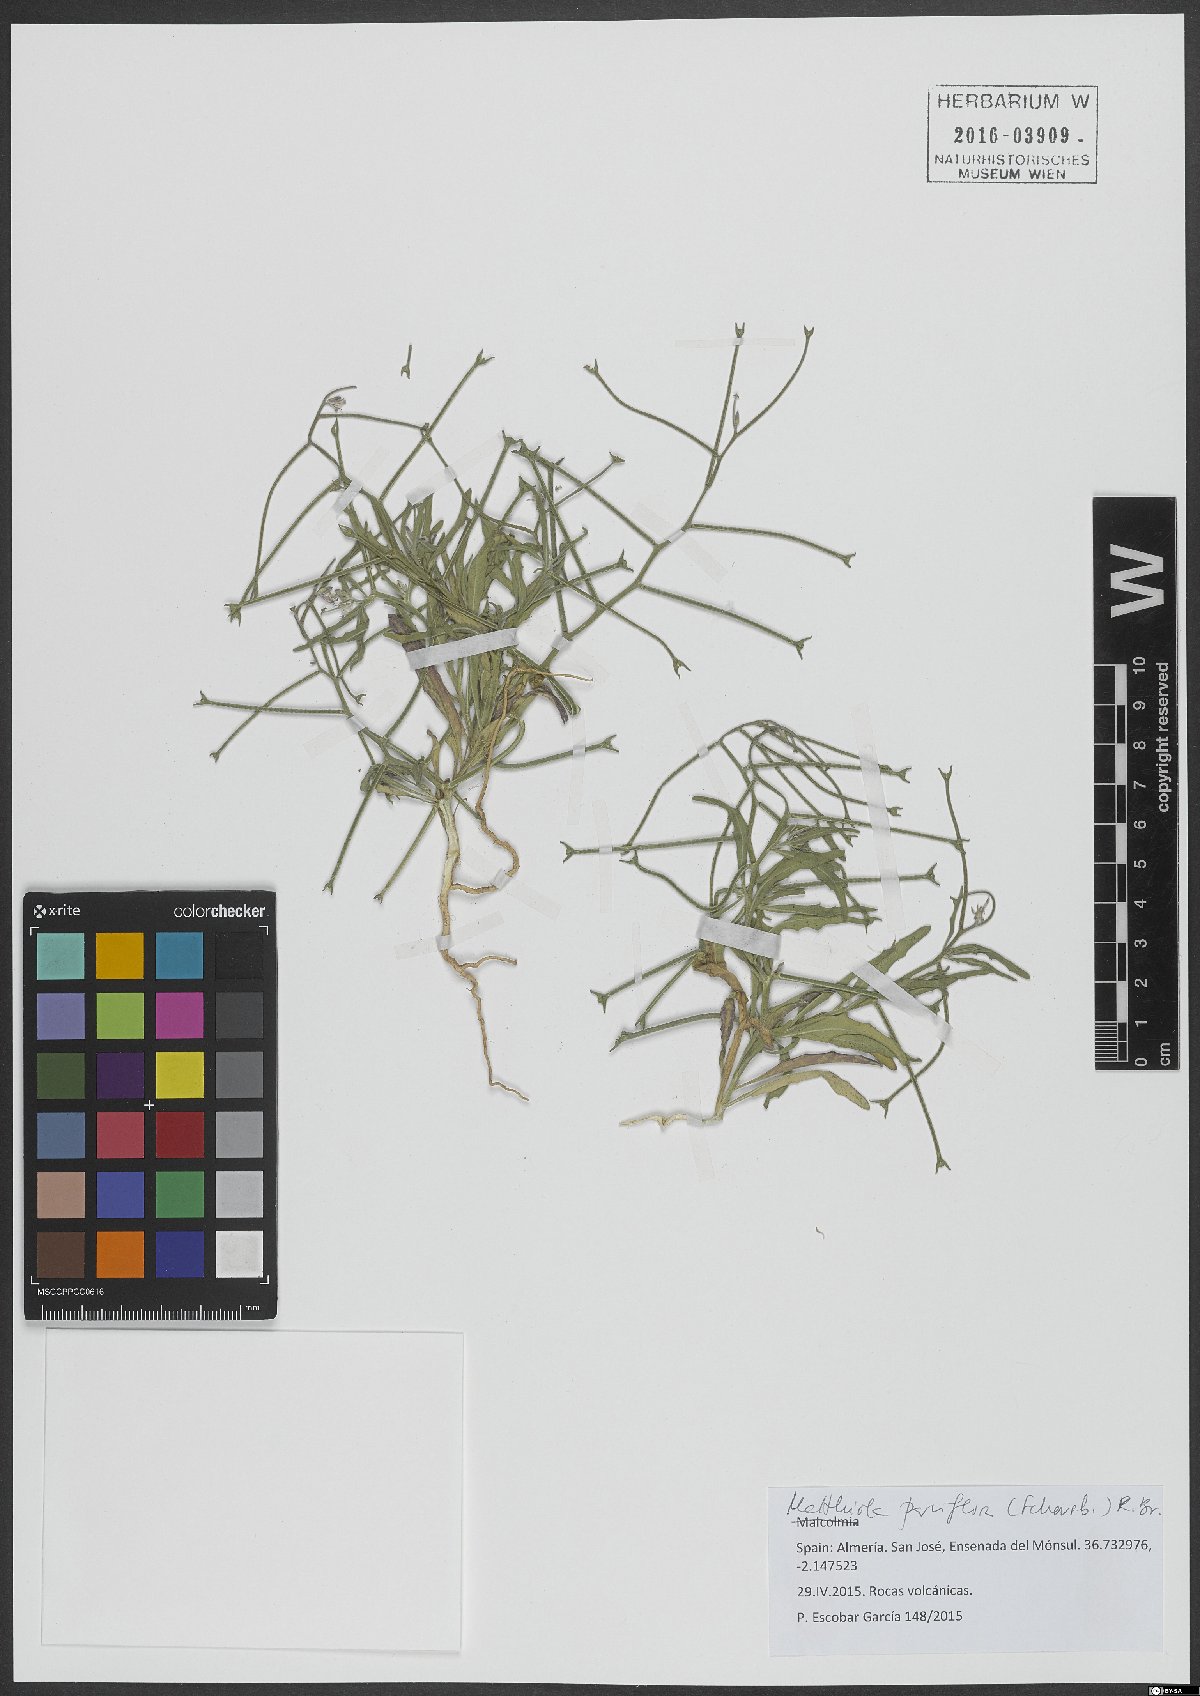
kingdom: Plantae
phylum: Tracheophyta
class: Magnoliopsida
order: Brassicales
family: Brassicaceae
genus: Matthiola
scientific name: Matthiola parviflora
